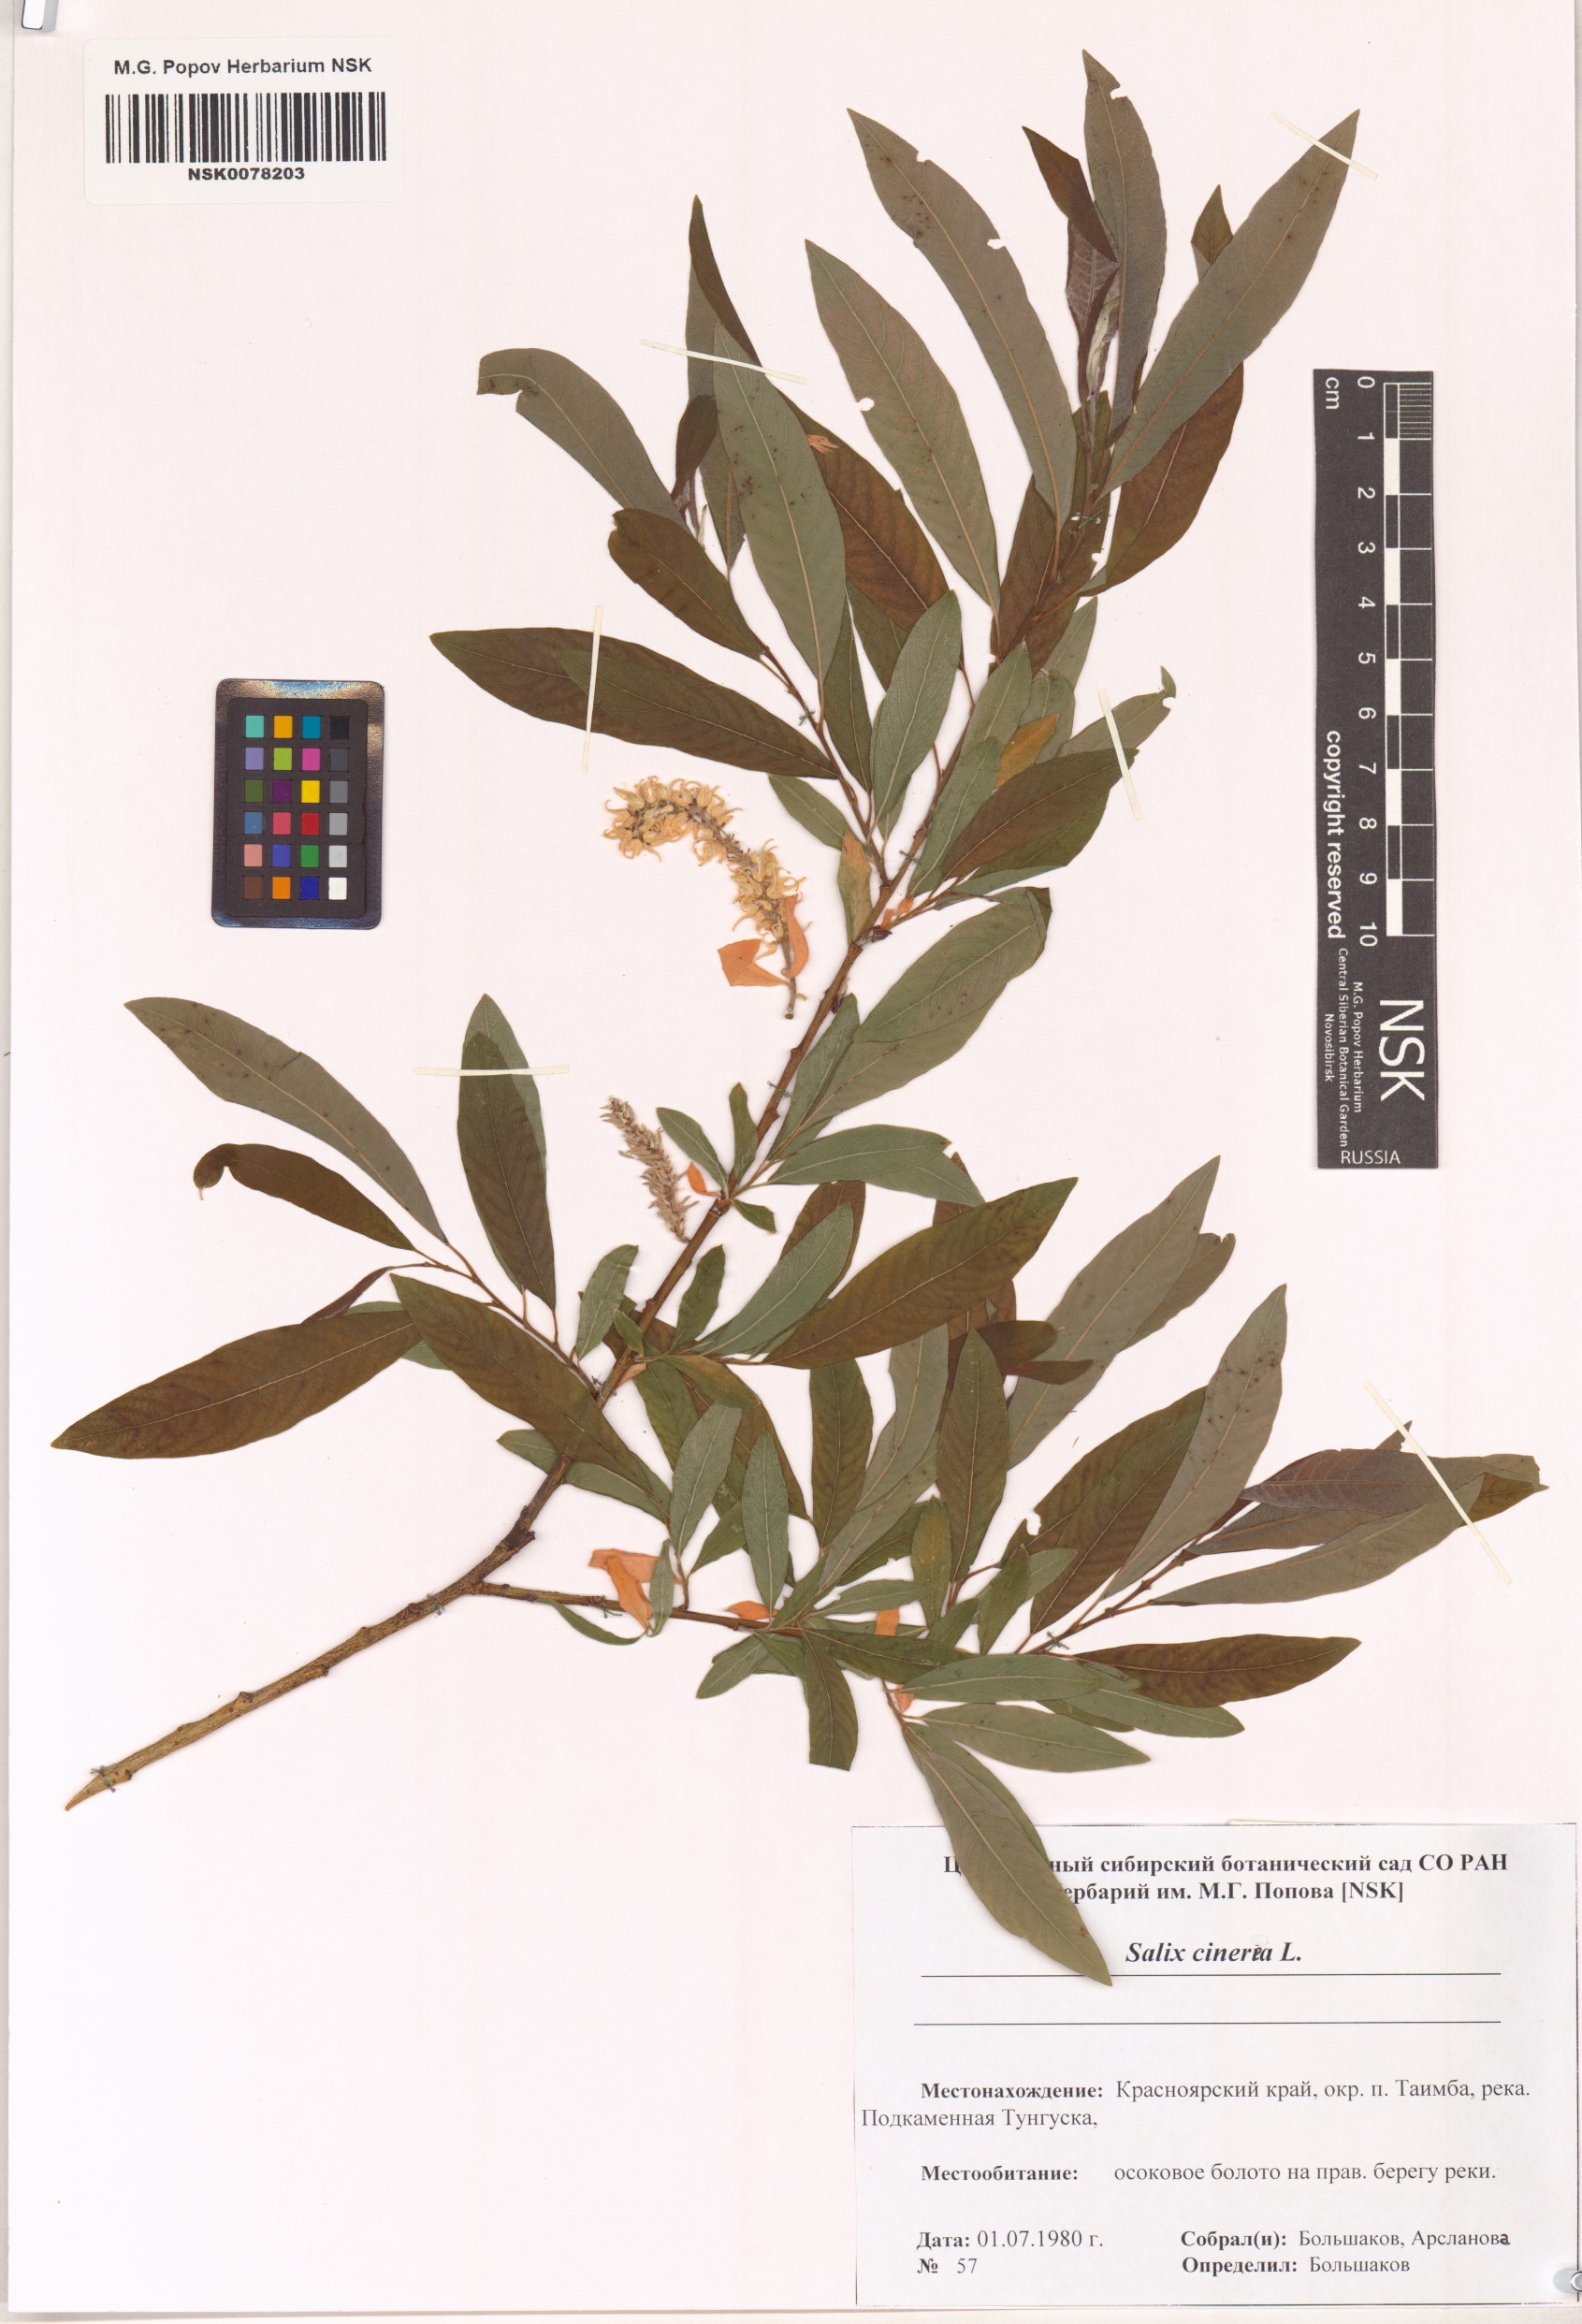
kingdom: Plantae
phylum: Tracheophyta
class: Magnoliopsida
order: Malpighiales
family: Salicaceae
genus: Salix
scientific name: Salix cinerea
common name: Common sallow
